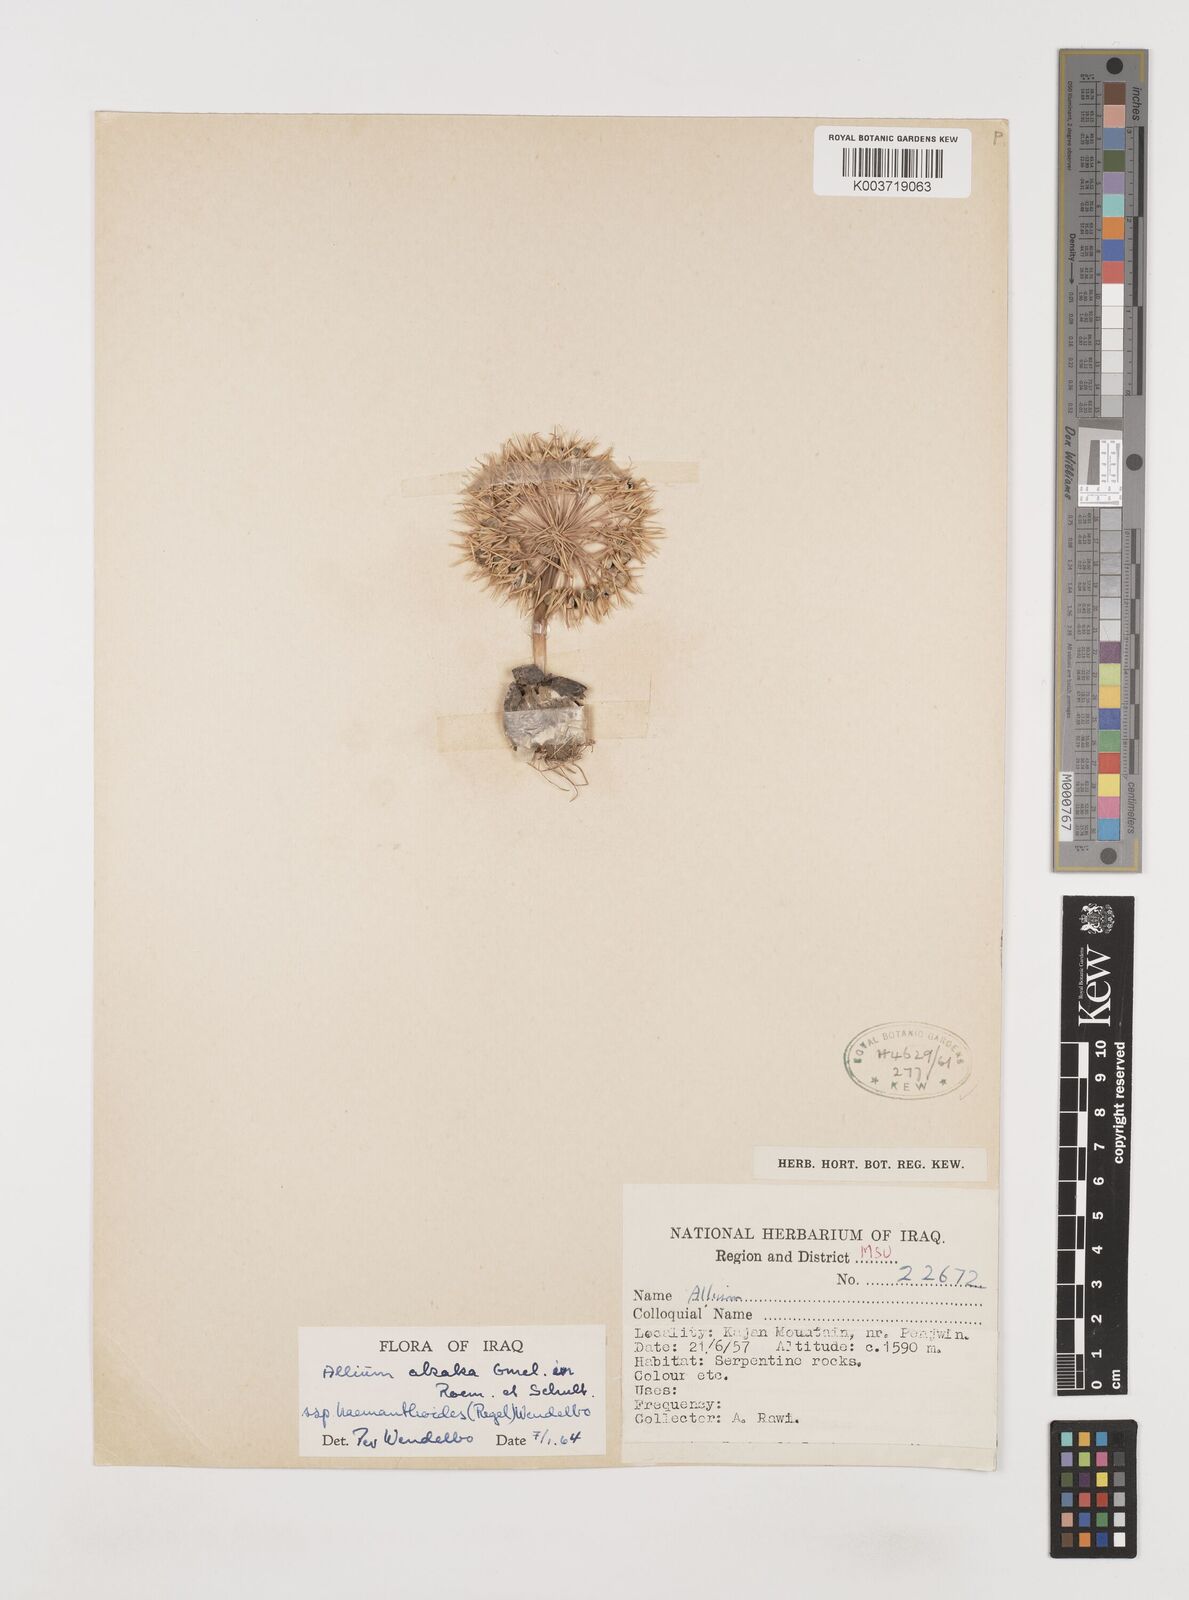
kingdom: Plantae
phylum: Tracheophyta
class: Liliopsida
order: Asparagales
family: Amaryllidaceae
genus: Allium
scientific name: Allium haemanthoides
